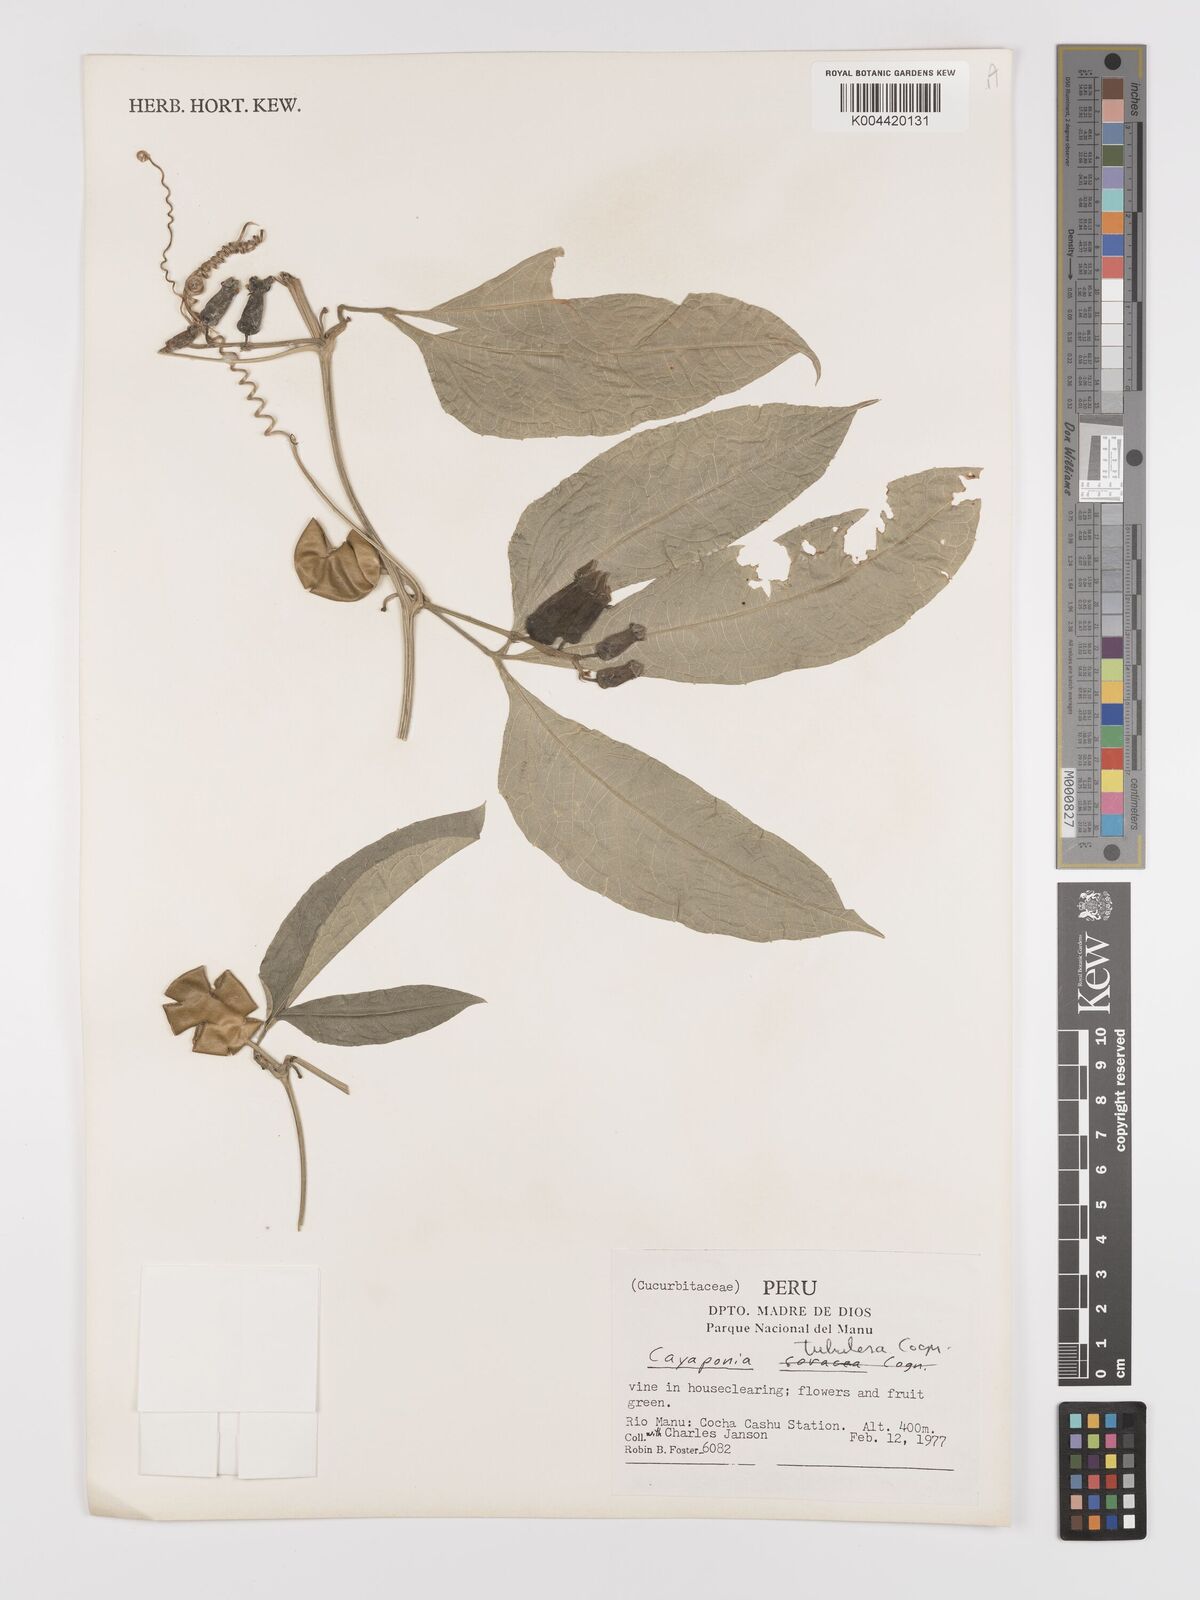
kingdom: Plantae
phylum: Tracheophyta
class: Magnoliopsida
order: Cucurbitales
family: Cucurbitaceae
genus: Cayaponia
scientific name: Cayaponia tubulosa
